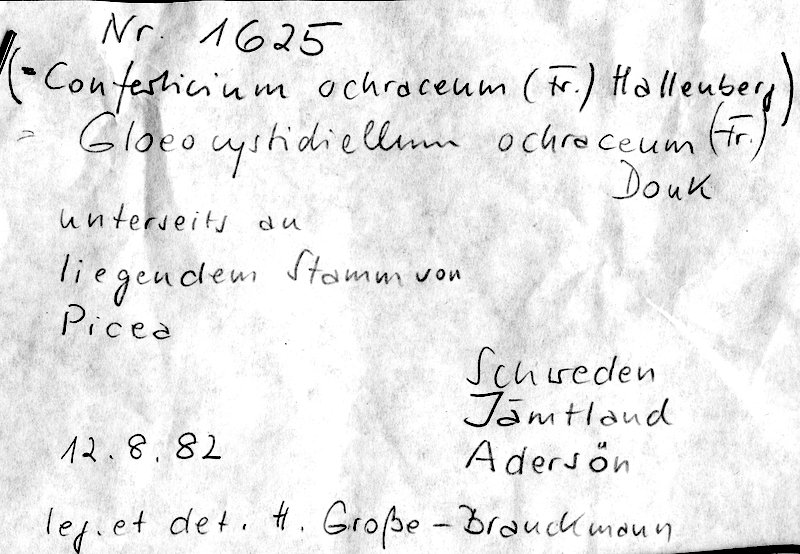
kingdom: Fungi
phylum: Basidiomycota
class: Agaricomycetes
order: Russulales
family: Stereaceae
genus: Conferticium
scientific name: Conferticium ochraceum
